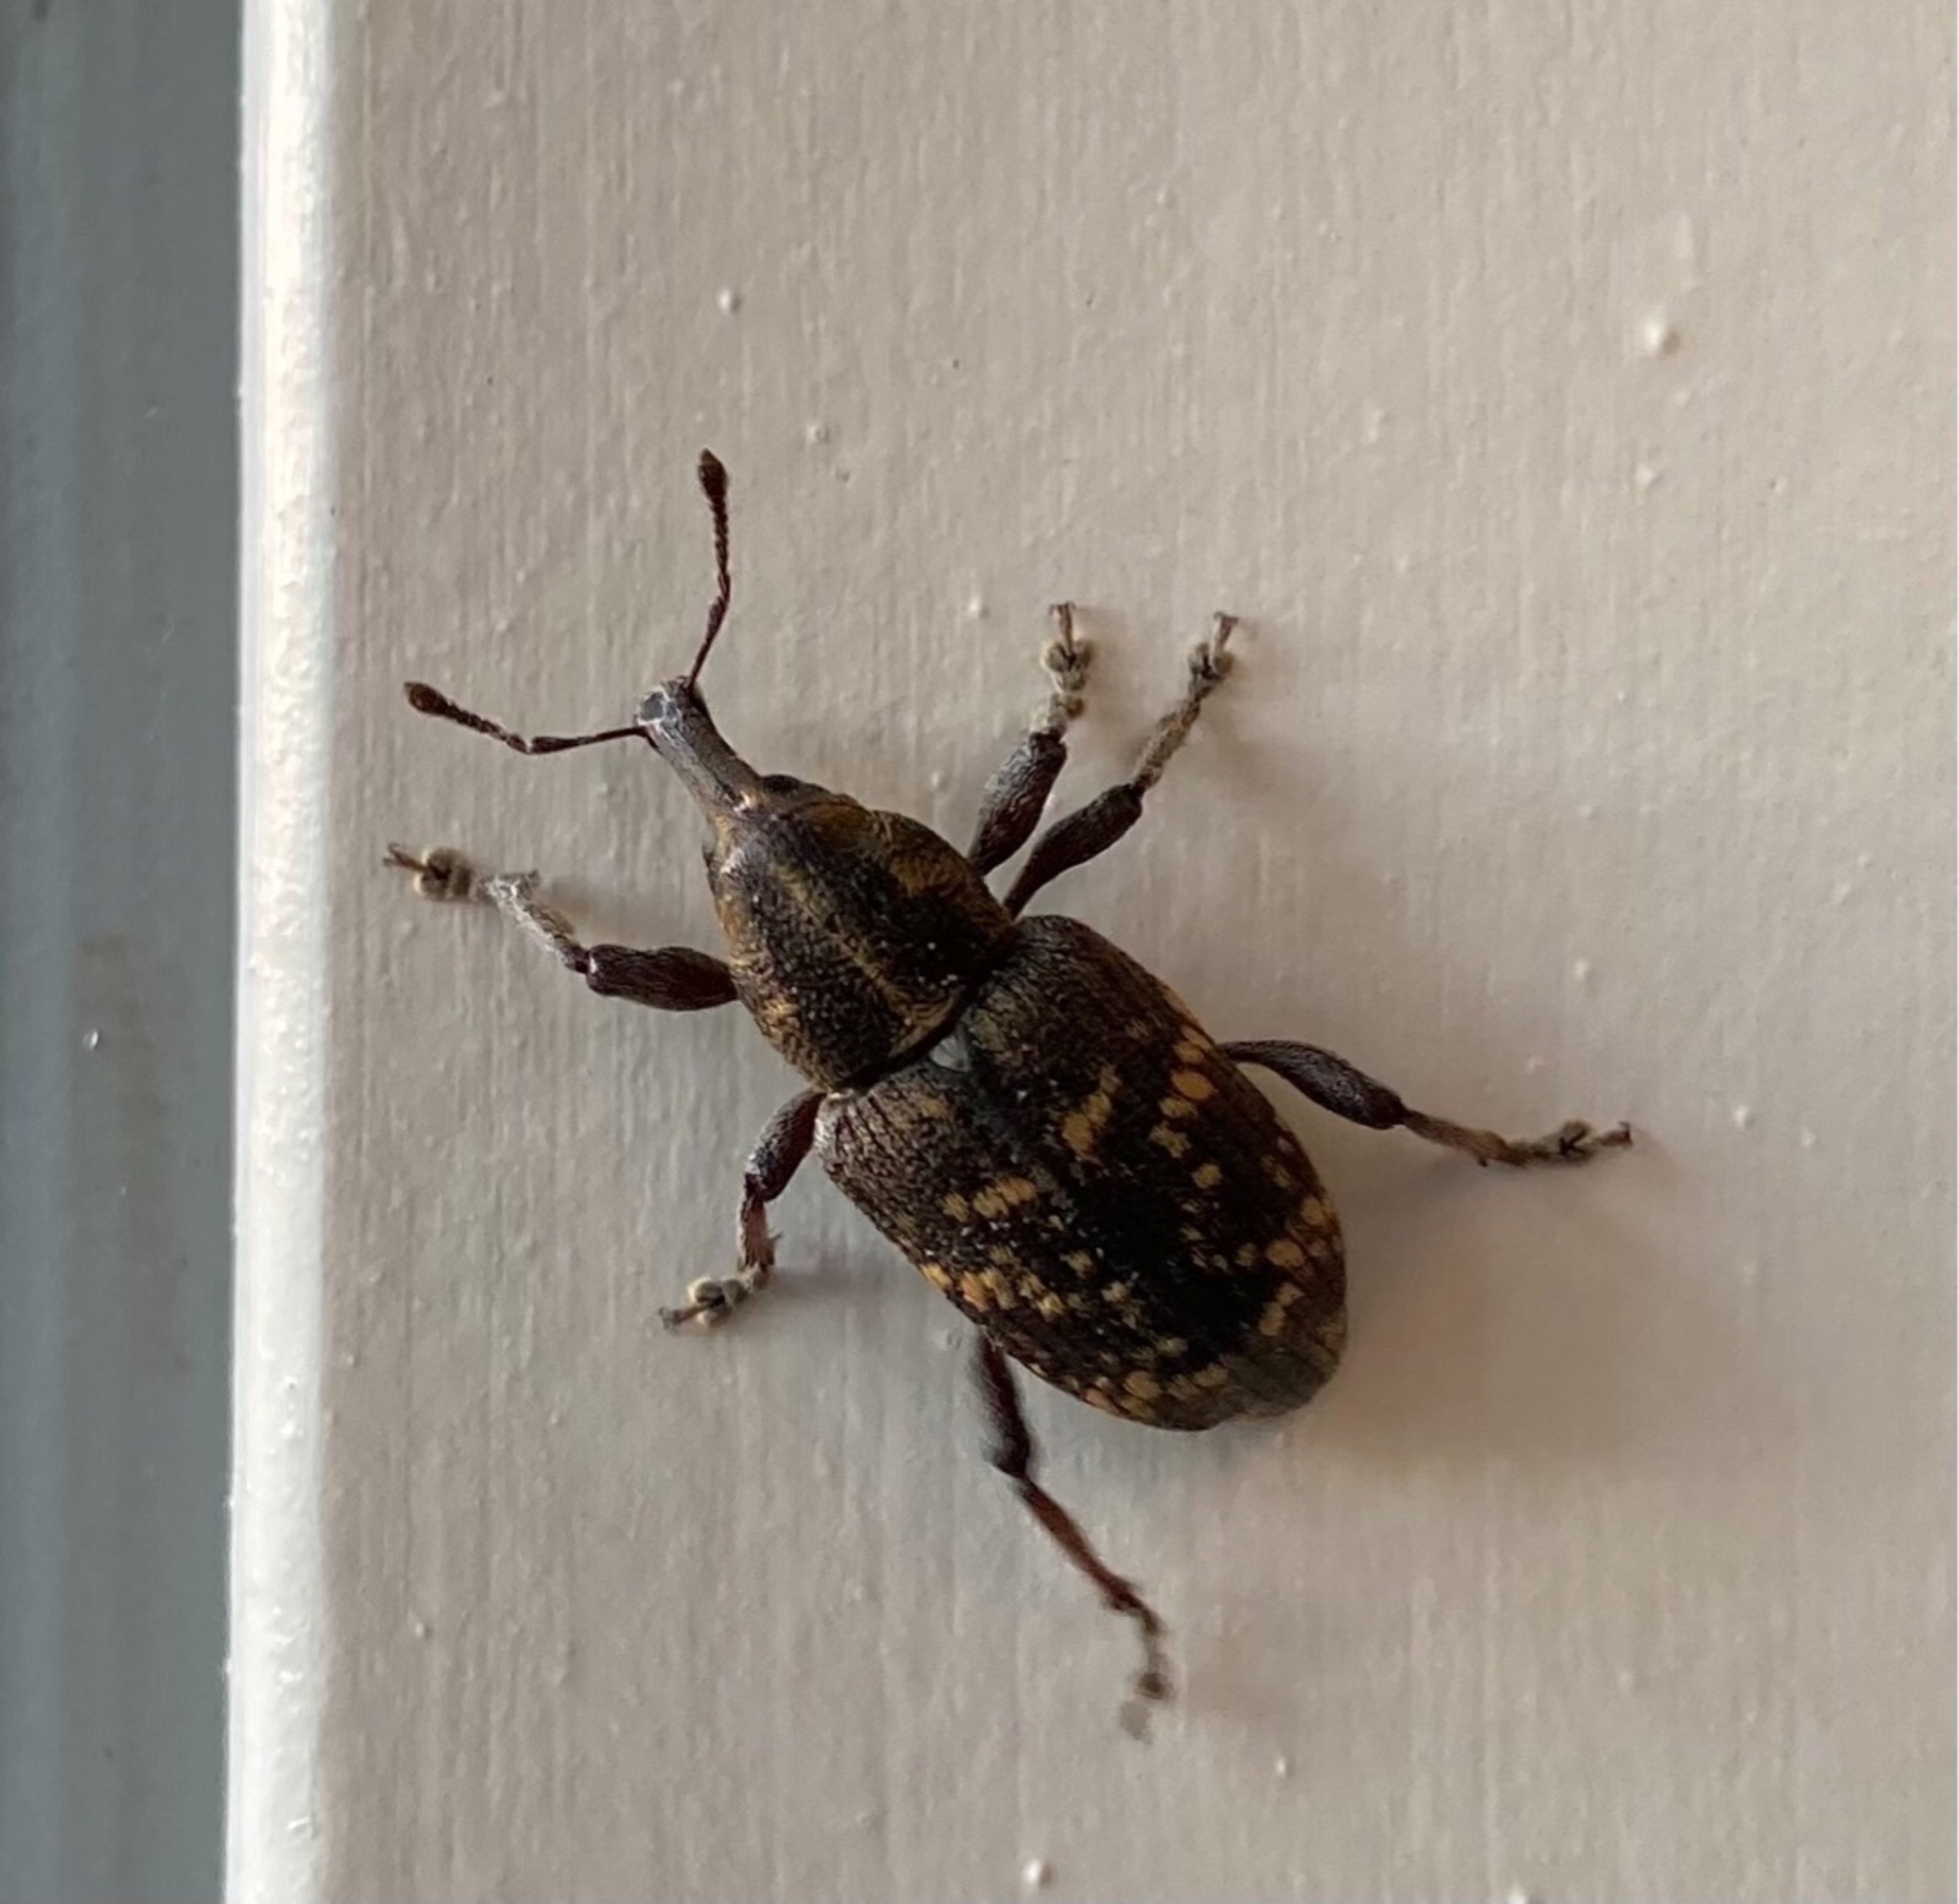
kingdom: Animalia
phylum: Arthropoda
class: Insecta
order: Coleoptera
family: Curculionidae
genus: Hylobius
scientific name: Hylobius abietis
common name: Stor nåletræsnudebille
